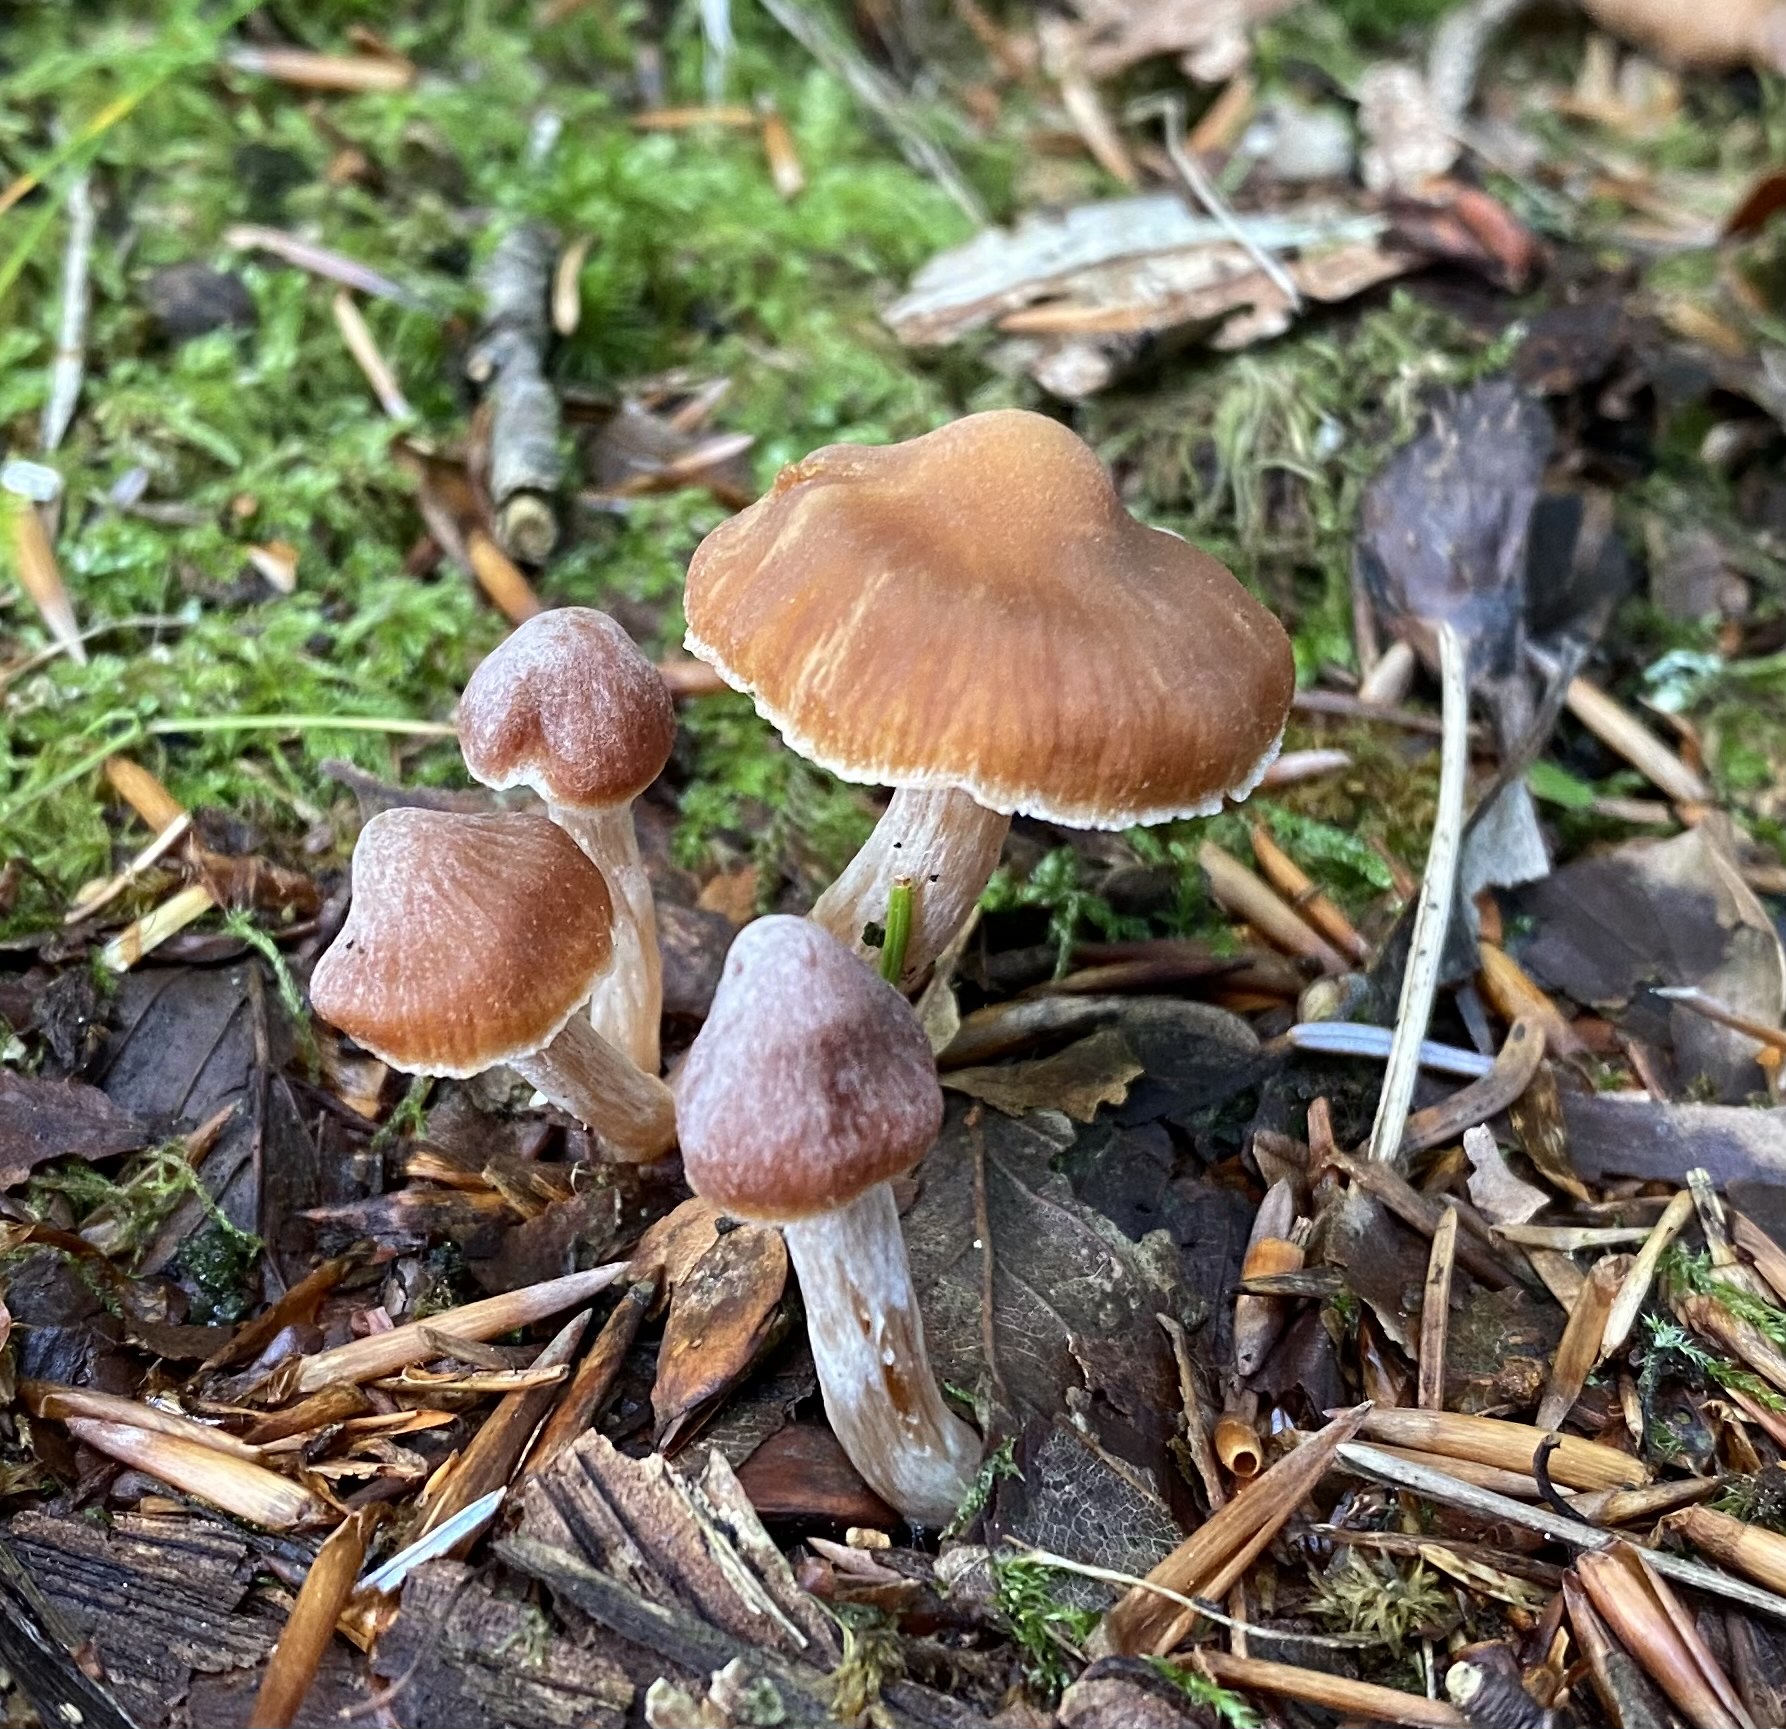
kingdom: Fungi
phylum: Basidiomycota
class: Agaricomycetes
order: Agaricales
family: Cortinariaceae
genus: Cortinarius
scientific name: Cortinarius
